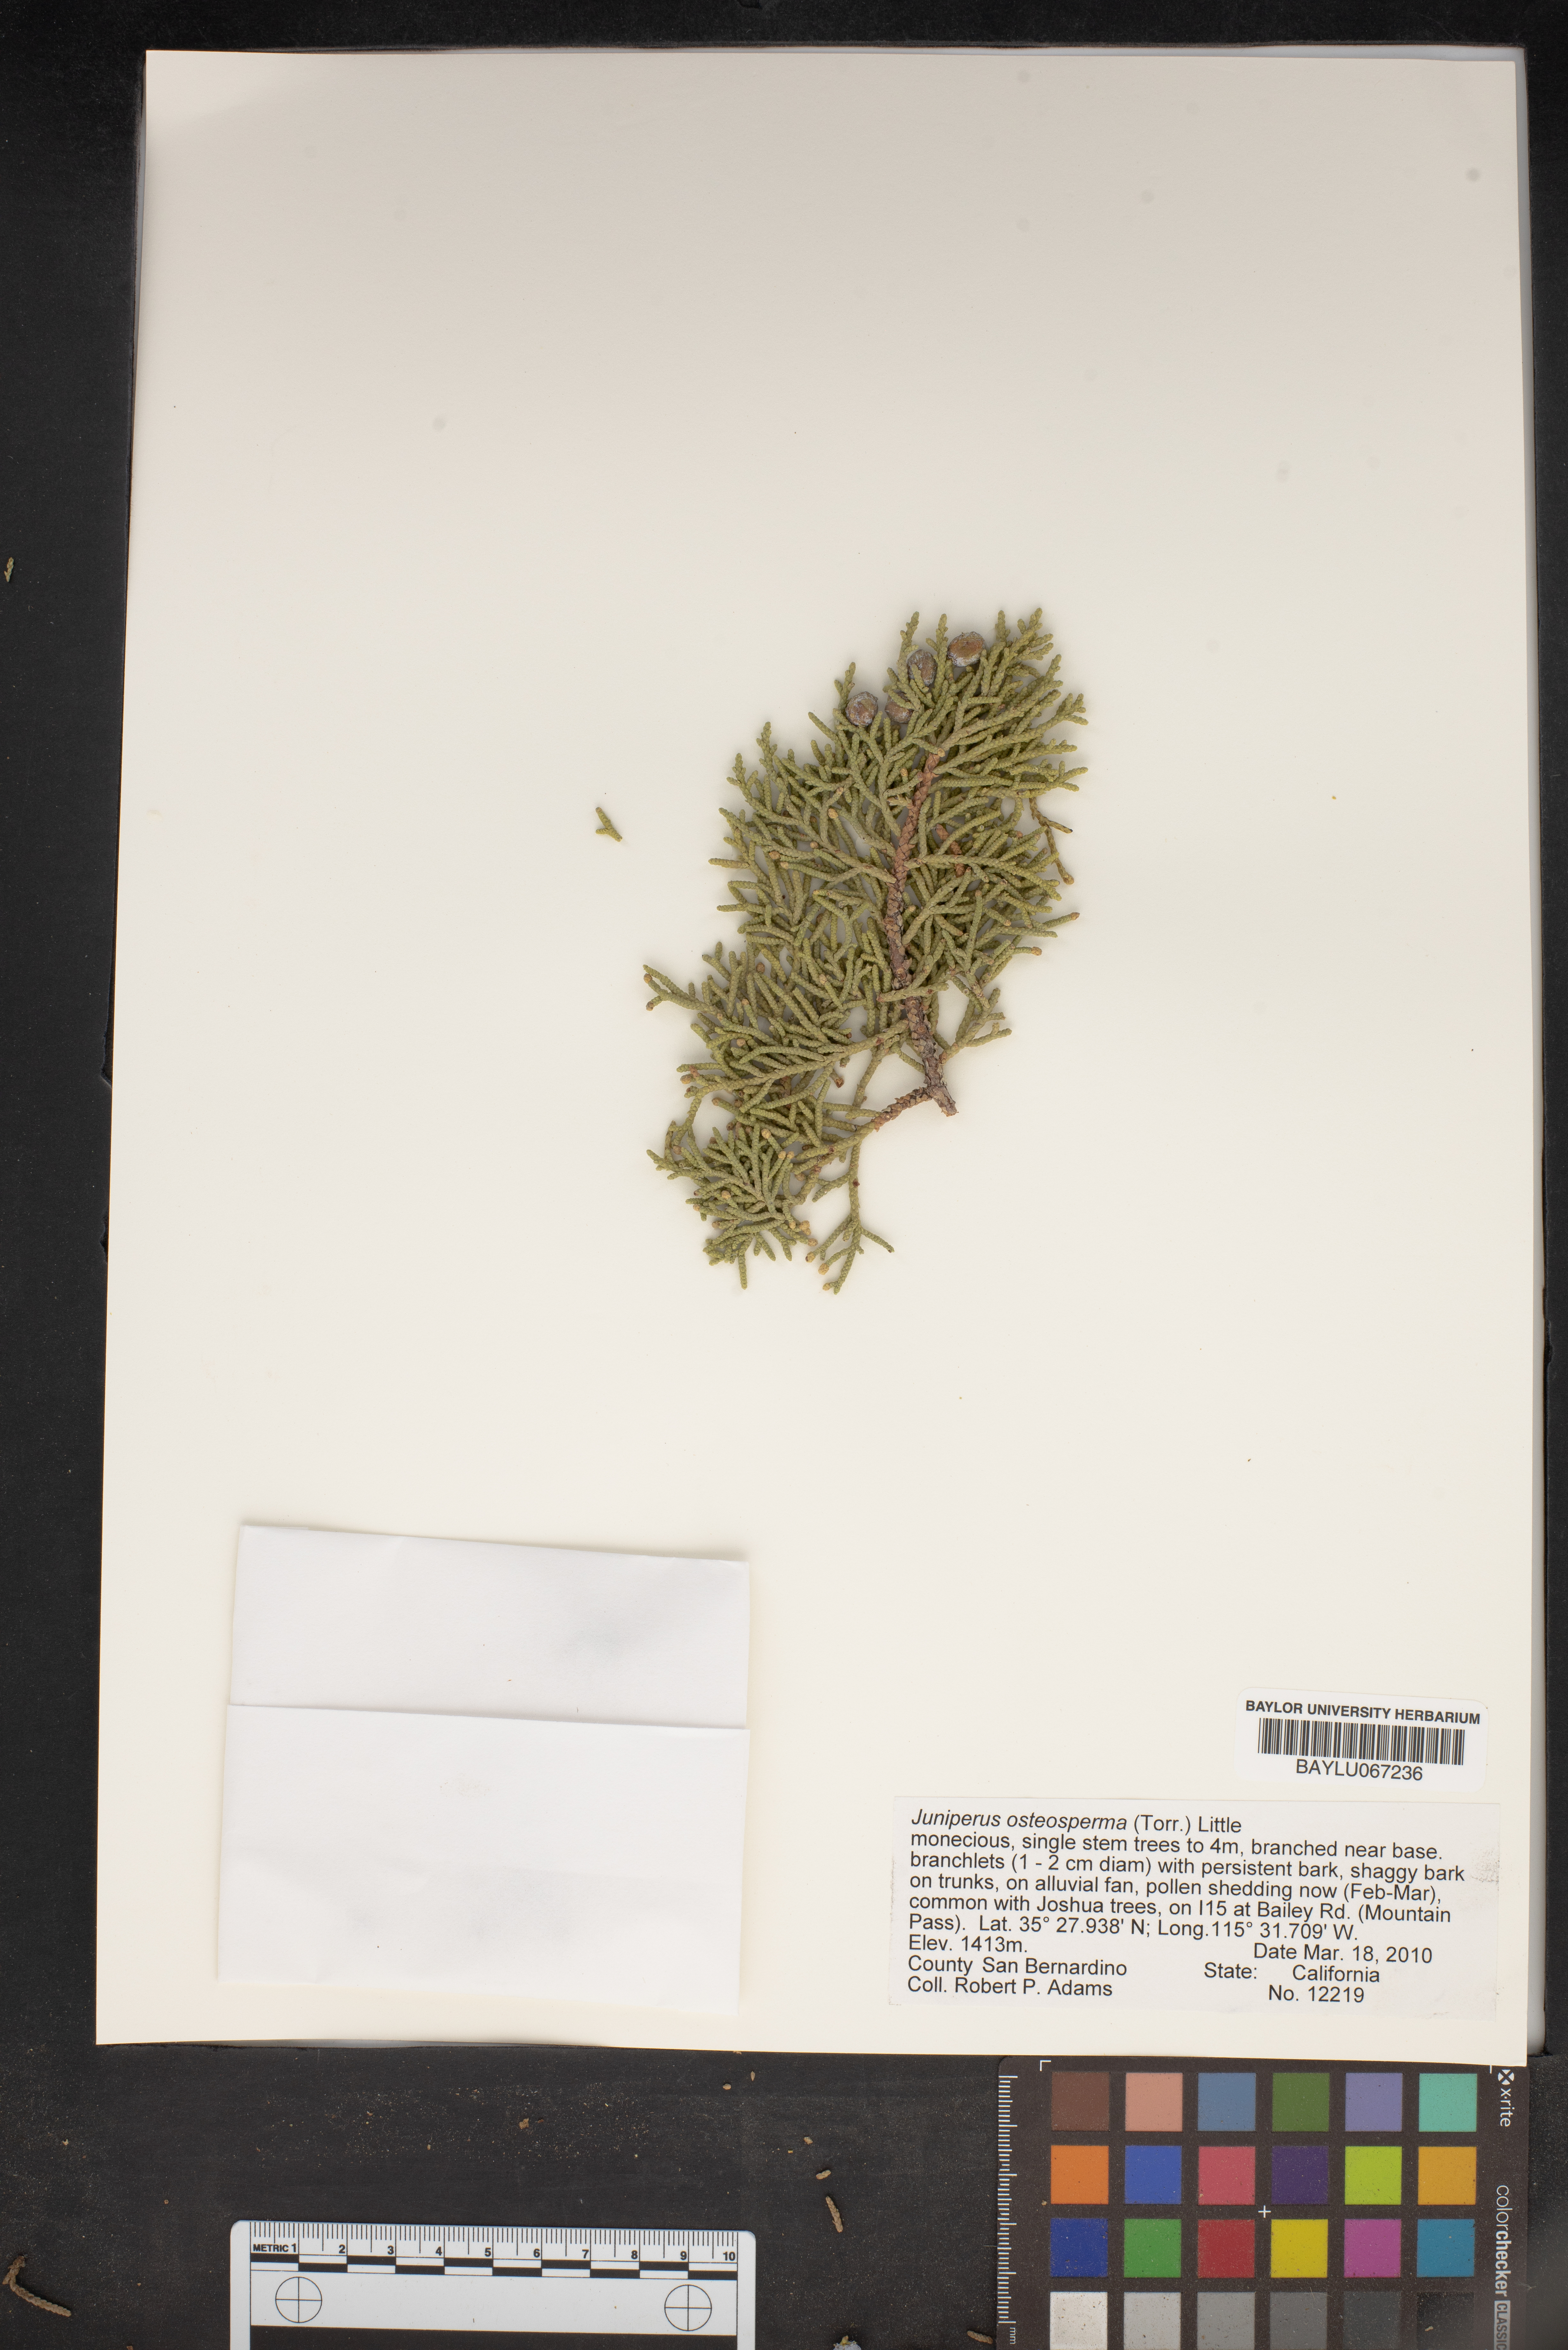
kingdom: Plantae
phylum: Tracheophyta
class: Pinopsida
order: Pinales
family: Cupressaceae
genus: Juniperus
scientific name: Juniperus osteosperma
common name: Utah juniper
